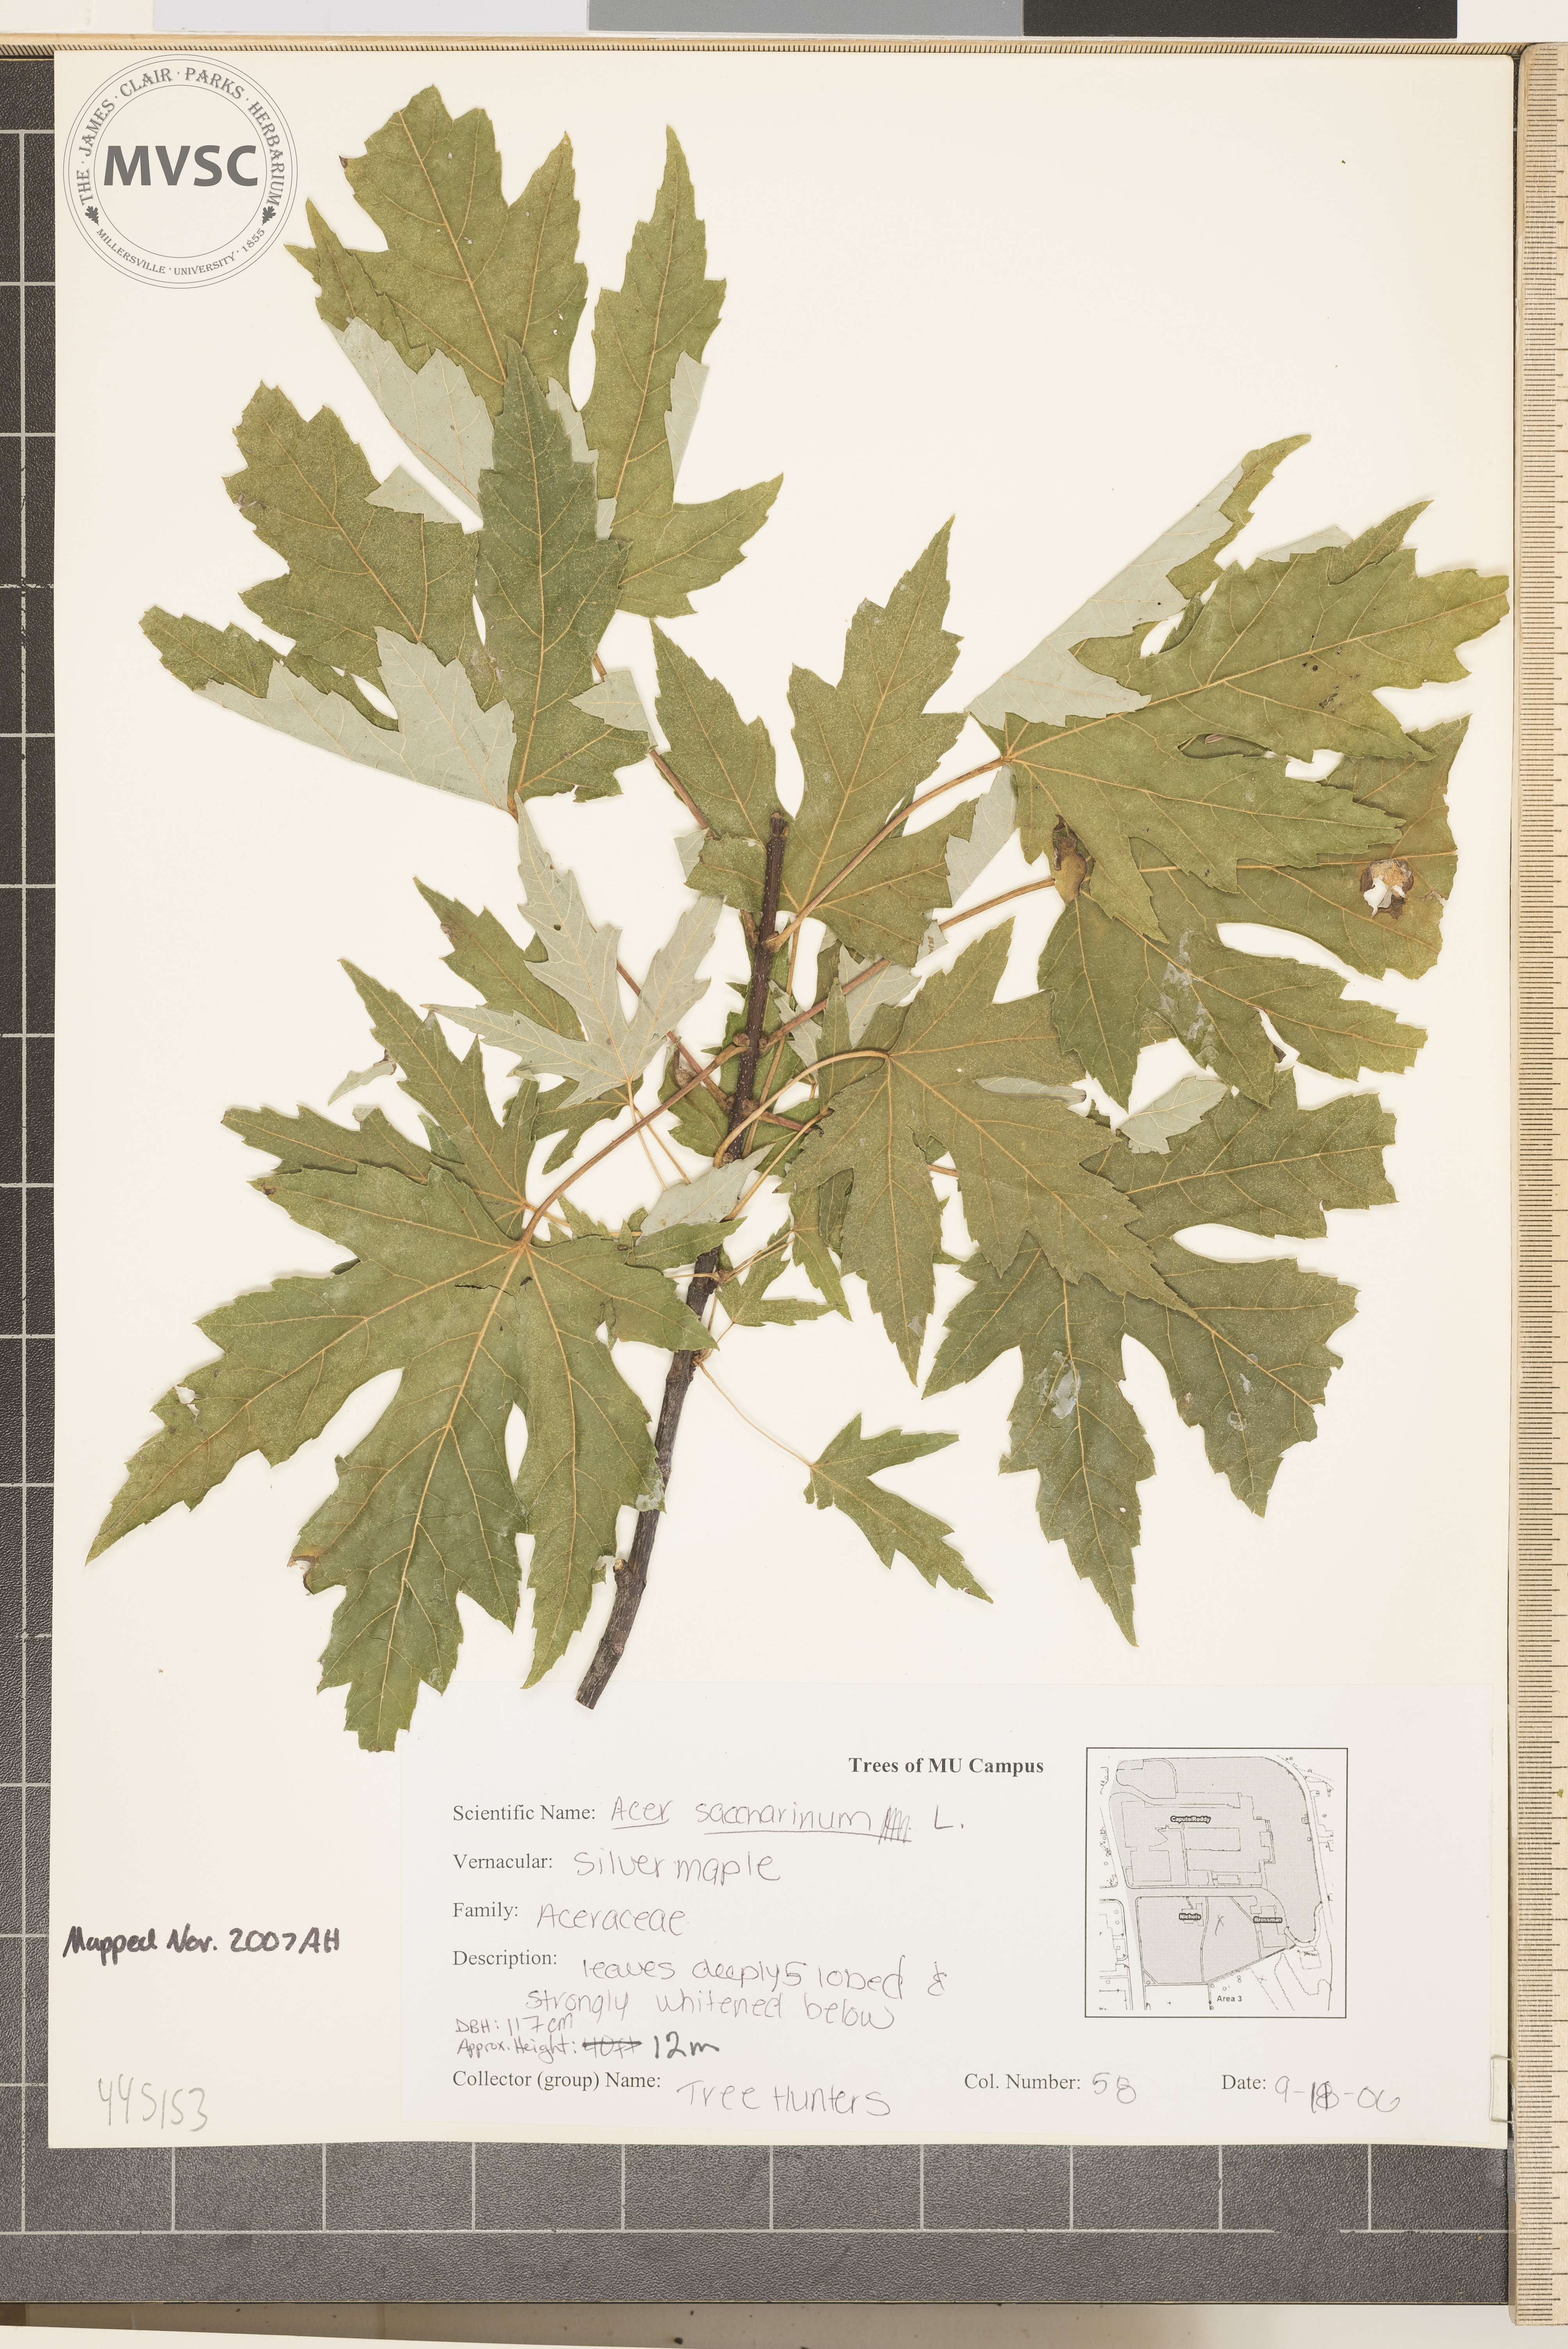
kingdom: Plantae
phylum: Tracheophyta
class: Magnoliopsida
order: Sapindales
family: Sapindaceae
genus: Acer
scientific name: Acer saccharinum
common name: Silver Maple
